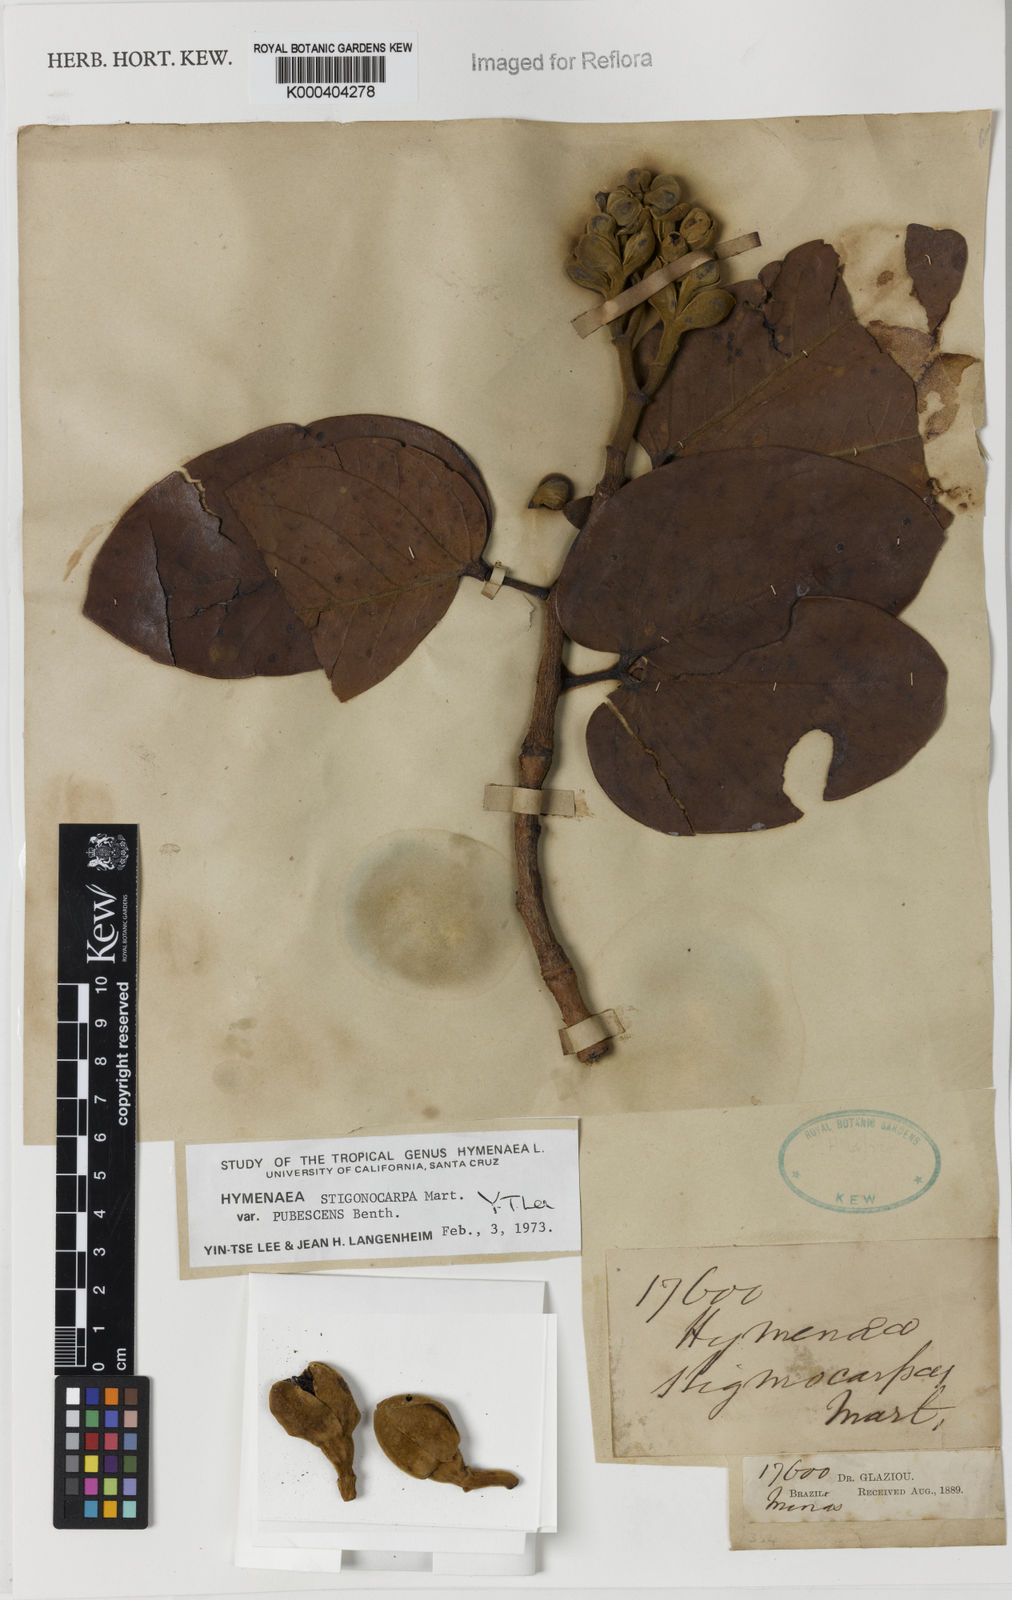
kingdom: Plantae
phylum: Tracheophyta
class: Magnoliopsida
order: Fabales
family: Fabaceae
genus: Hymenaea
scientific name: Hymenaea stigonocarpa
